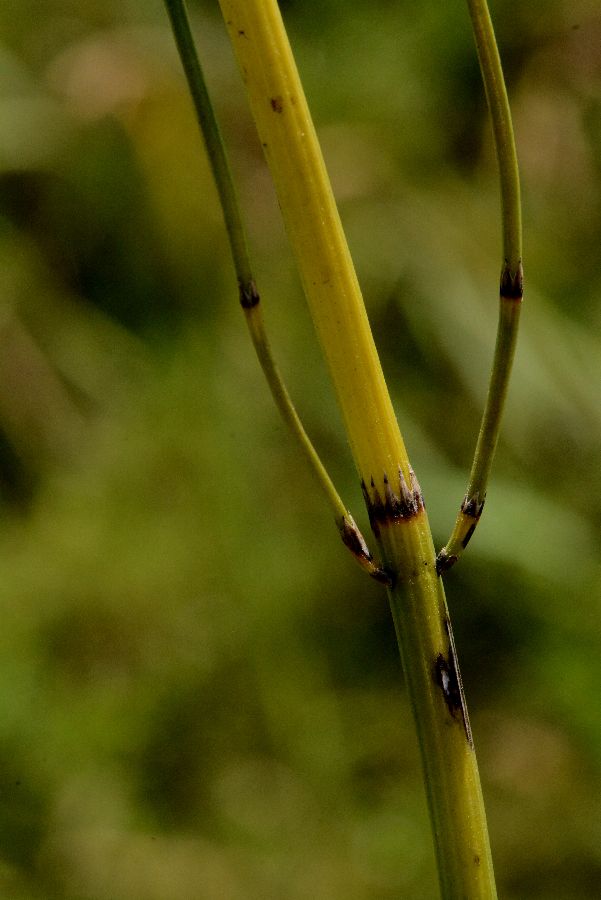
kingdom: Plantae
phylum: Tracheophyta
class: Polypodiopsida
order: Equisetales
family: Equisetaceae
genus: Equisetum
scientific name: Equisetum palustre
